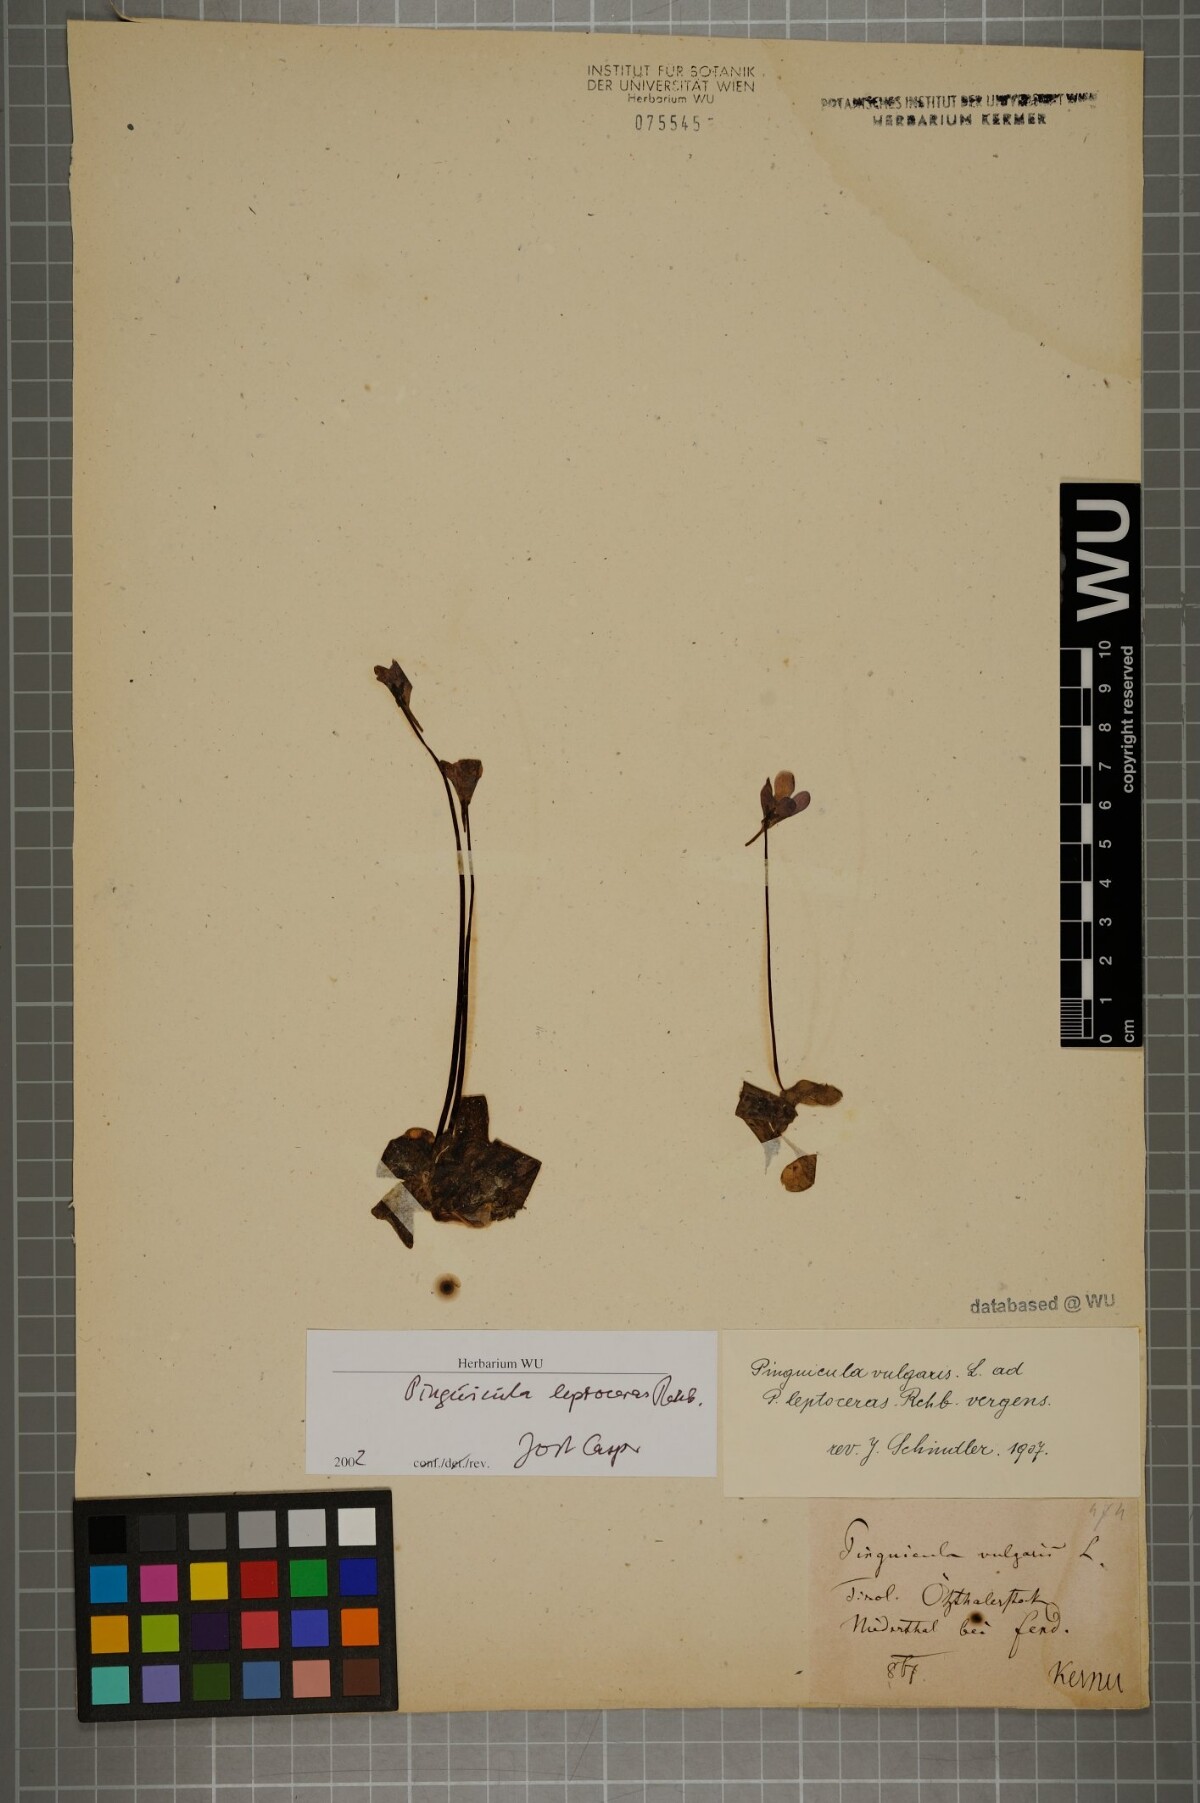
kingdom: Plantae
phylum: Tracheophyta
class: Magnoliopsida
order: Lamiales
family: Lentibulariaceae
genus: Pinguicula
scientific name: Pinguicula leptoceras
